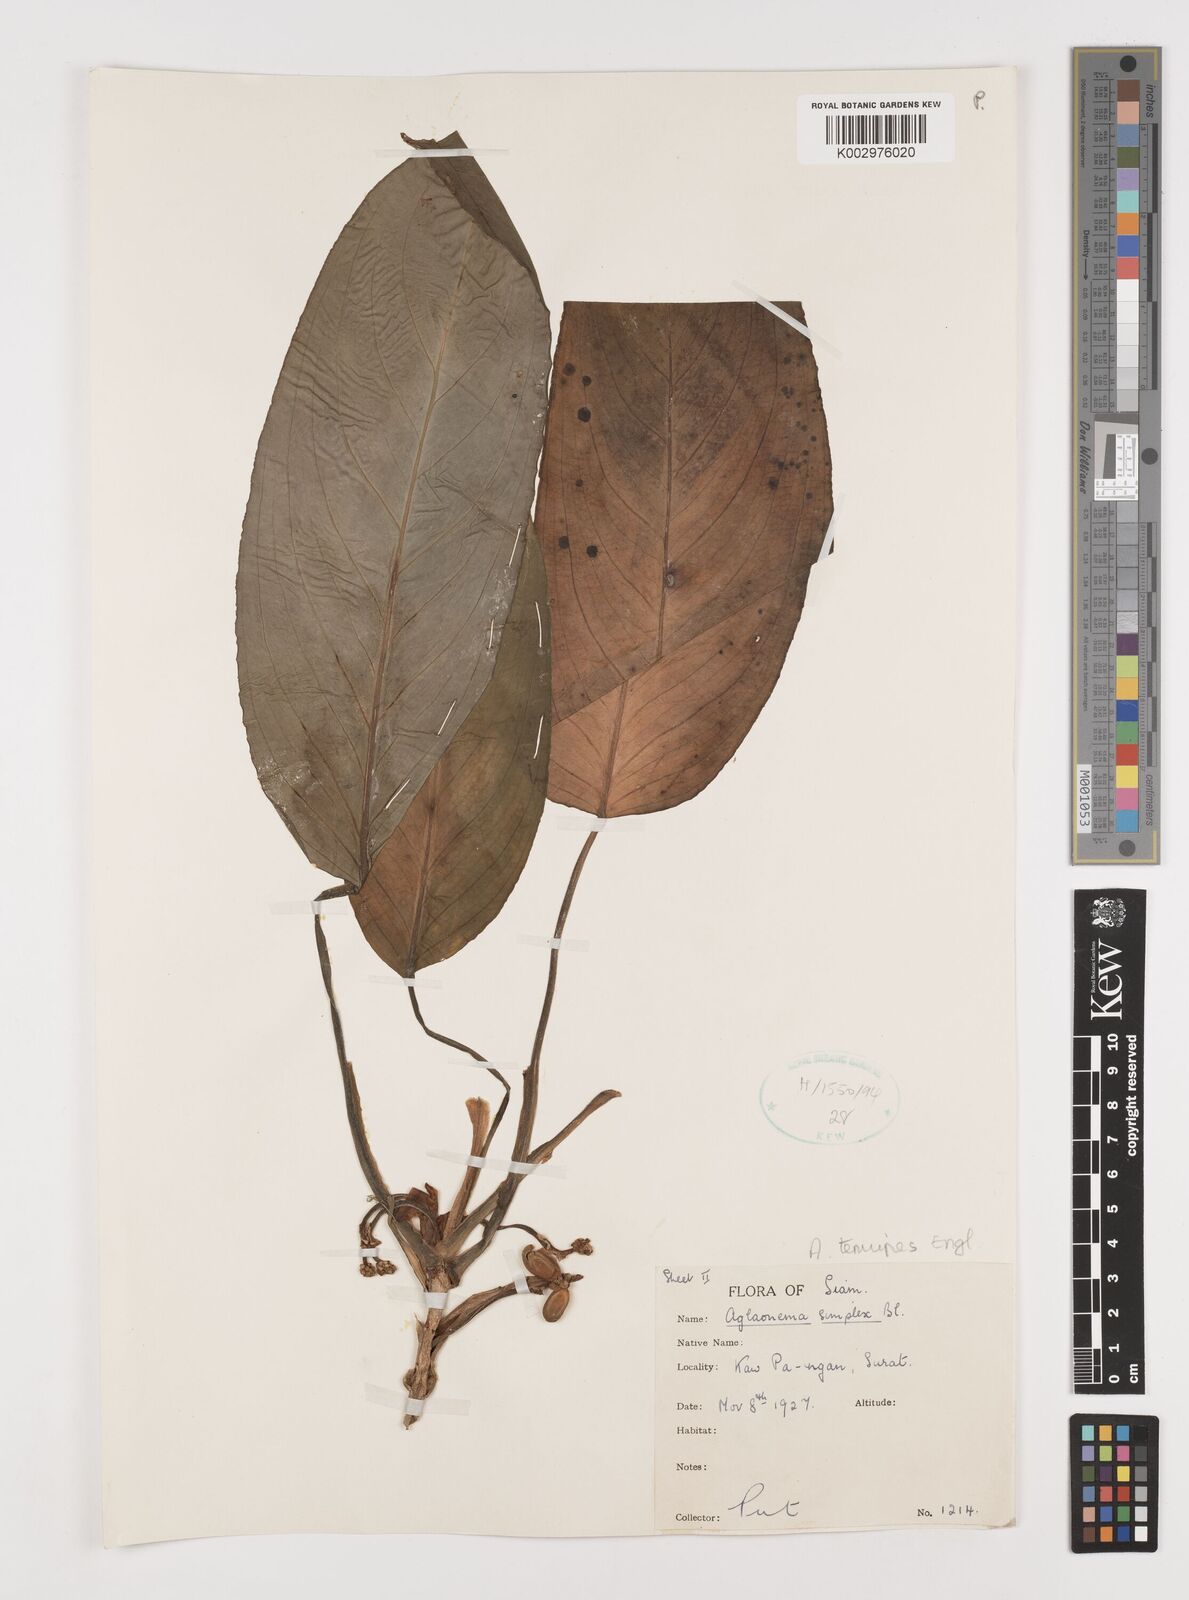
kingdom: Plantae
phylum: Tracheophyta
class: Liliopsida
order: Alismatales
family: Araceae
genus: Aglaonema
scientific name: Aglaonema simplex
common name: Malayan-sword
